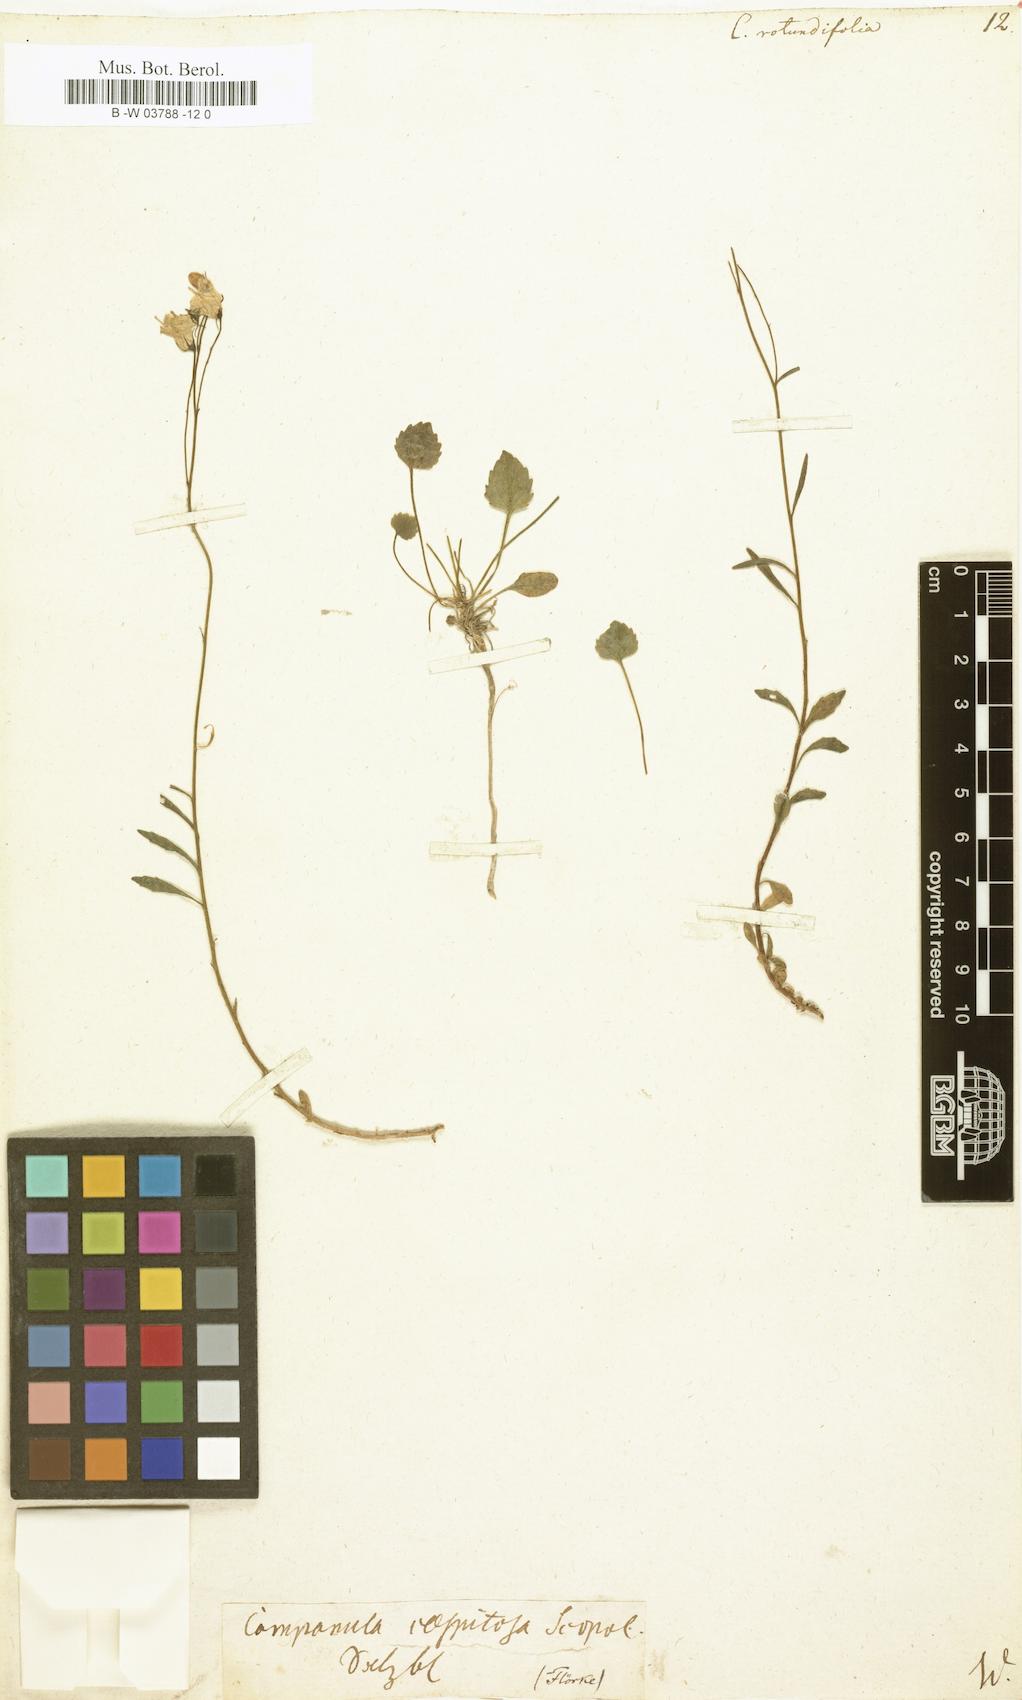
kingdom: Plantae
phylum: Tracheophyta
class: Magnoliopsida
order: Asterales
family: Campanulaceae
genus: Campanula
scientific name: Campanula rotundifolia
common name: Harebell
